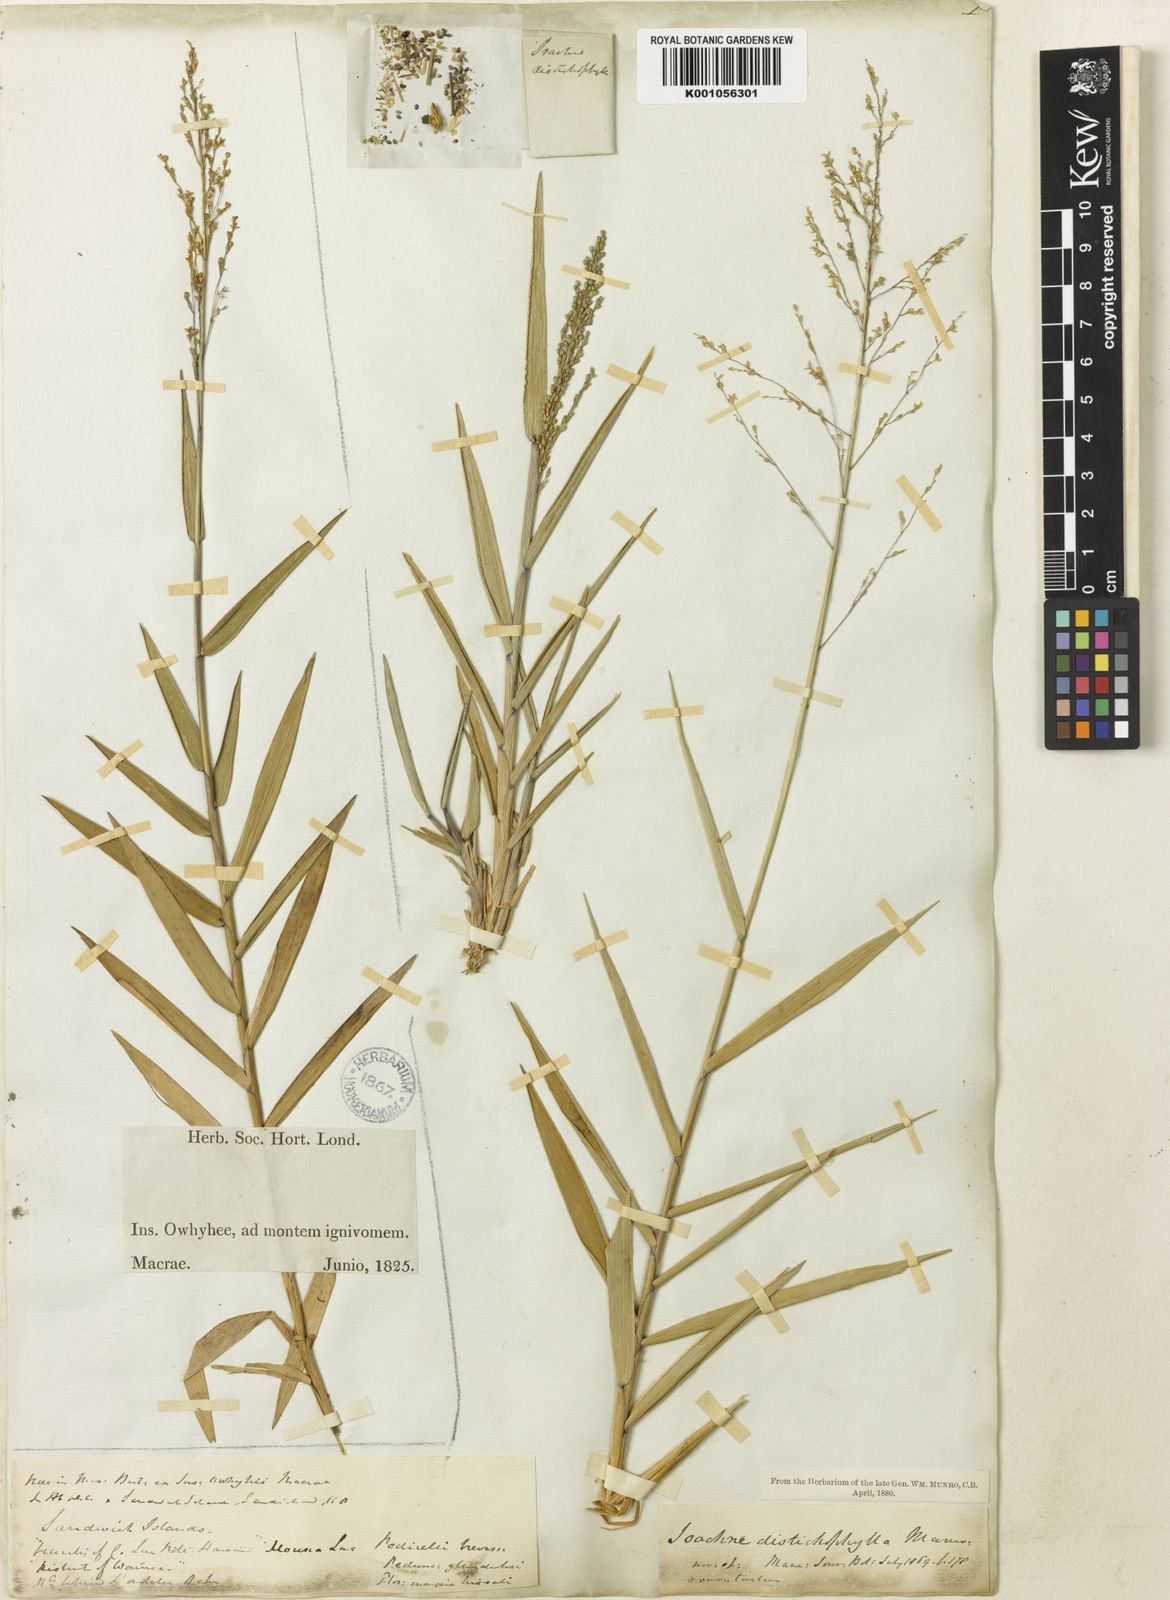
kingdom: Plantae
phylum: Tracheophyta
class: Liliopsida
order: Poales
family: Poaceae
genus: Isachne
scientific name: Isachne distichophylla
